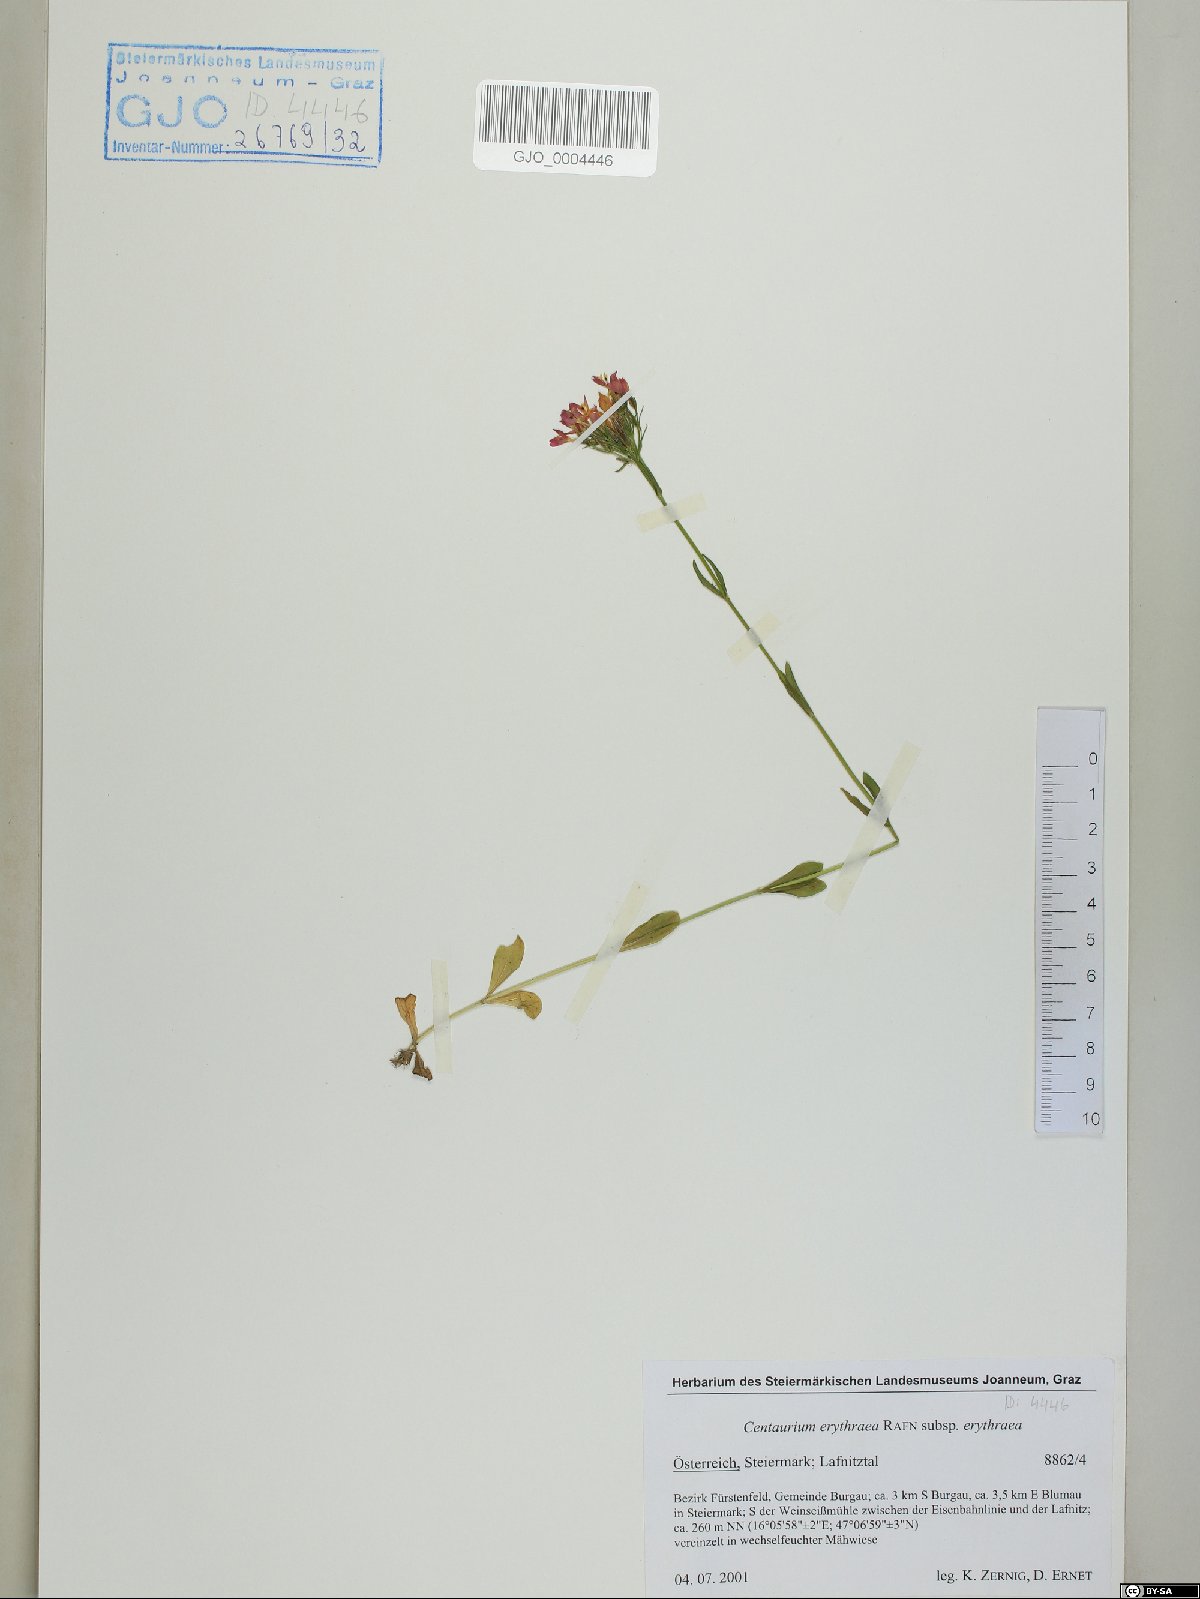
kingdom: Plantae
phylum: Tracheophyta
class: Magnoliopsida
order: Gentianales
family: Gentianaceae
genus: Centaurium
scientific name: Centaurium erythraea
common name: Common centaury
